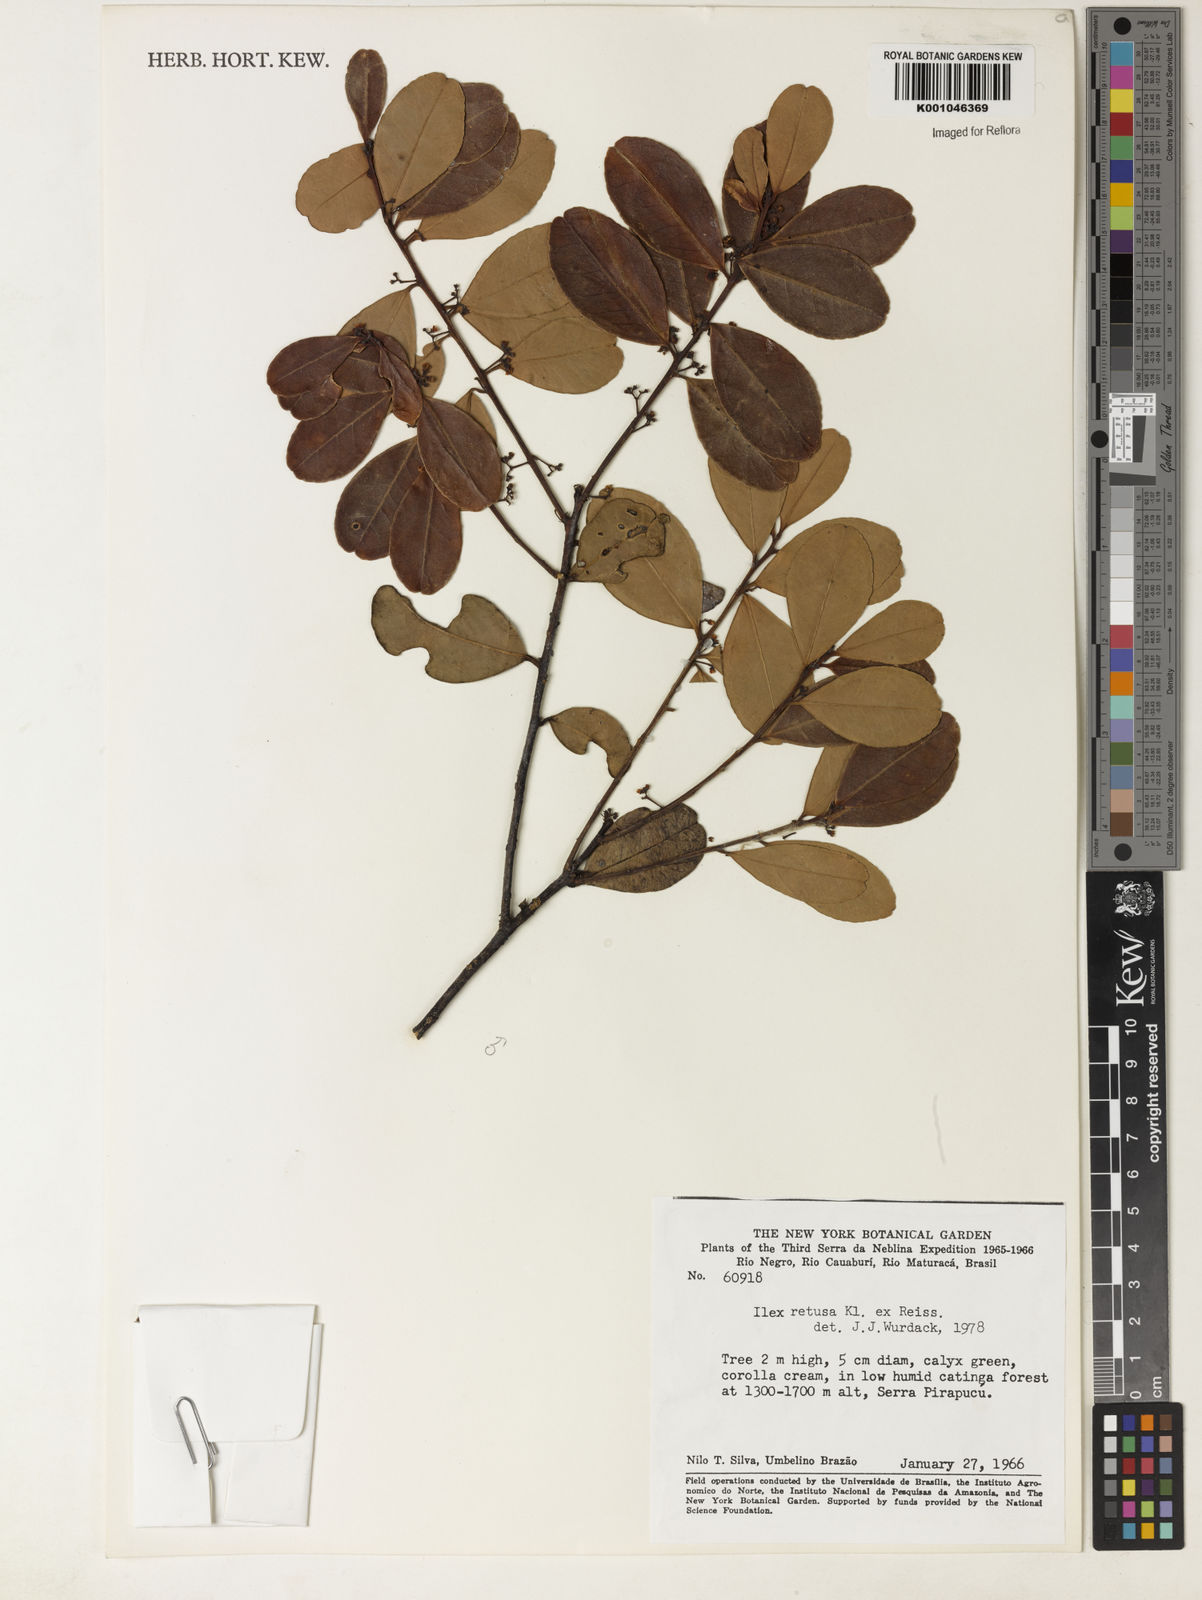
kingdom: Plantae
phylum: Tracheophyta
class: Magnoliopsida
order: Aquifoliales
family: Aquifoliaceae
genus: Ilex
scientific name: Ilex
